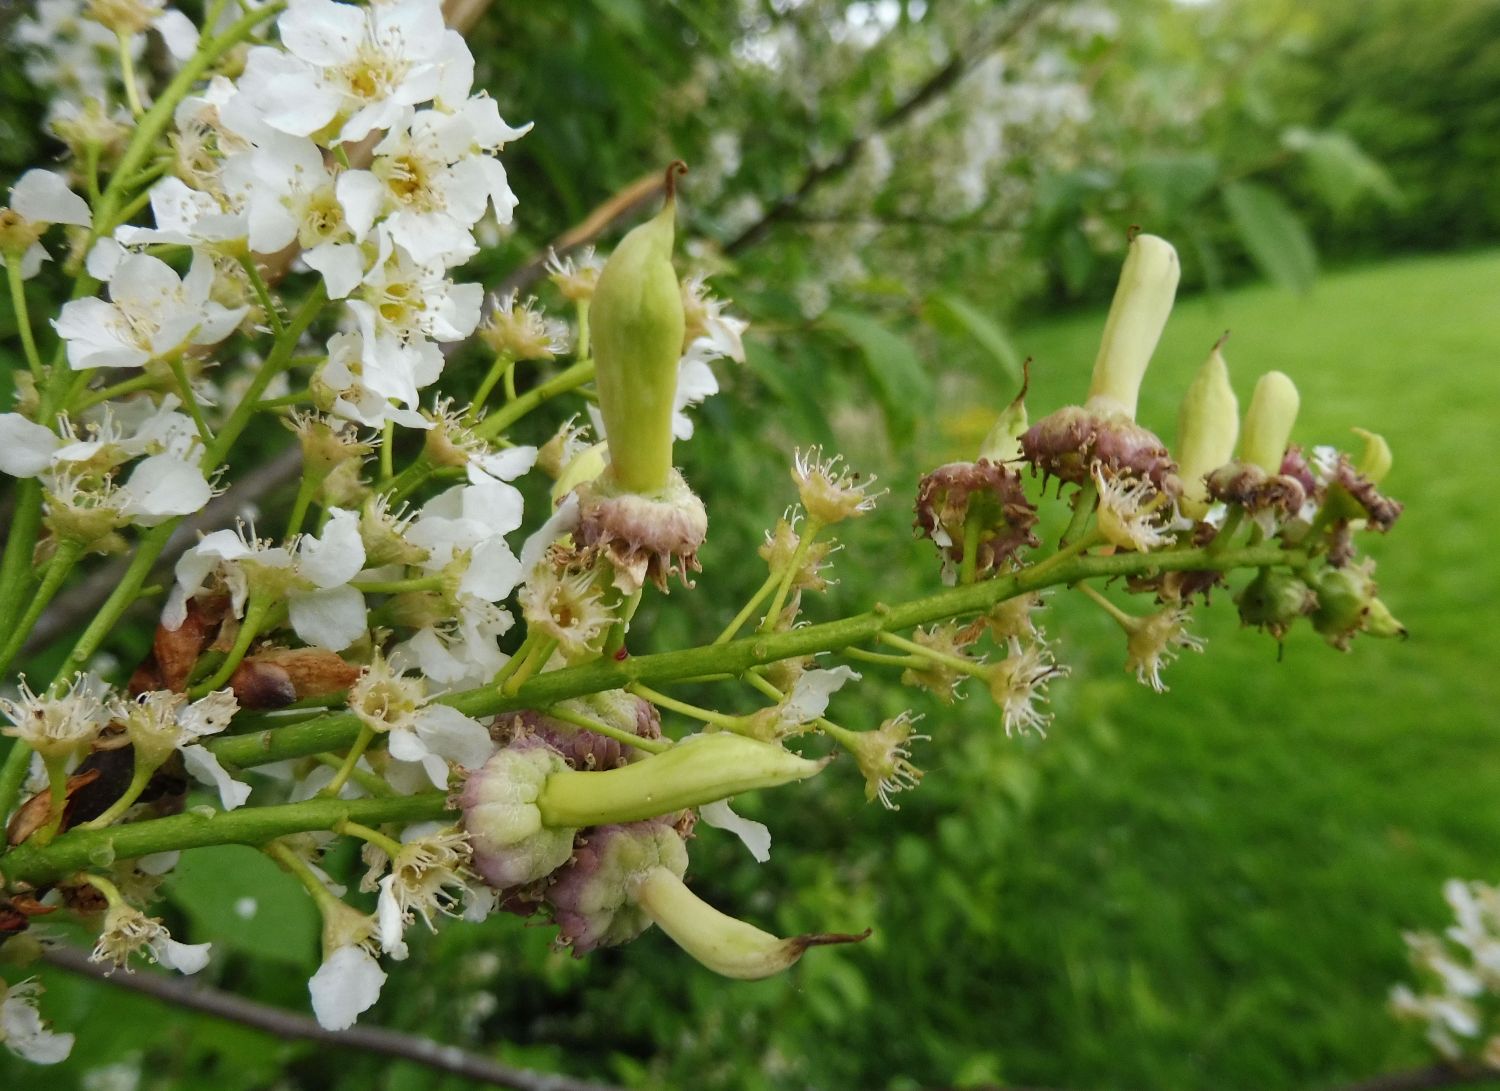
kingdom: Fungi
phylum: Ascomycota
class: Taphrinomycetes
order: Taphrinales
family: Taphrinaceae
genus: Taphrina
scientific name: Taphrina padi
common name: Bird cherry pocket
